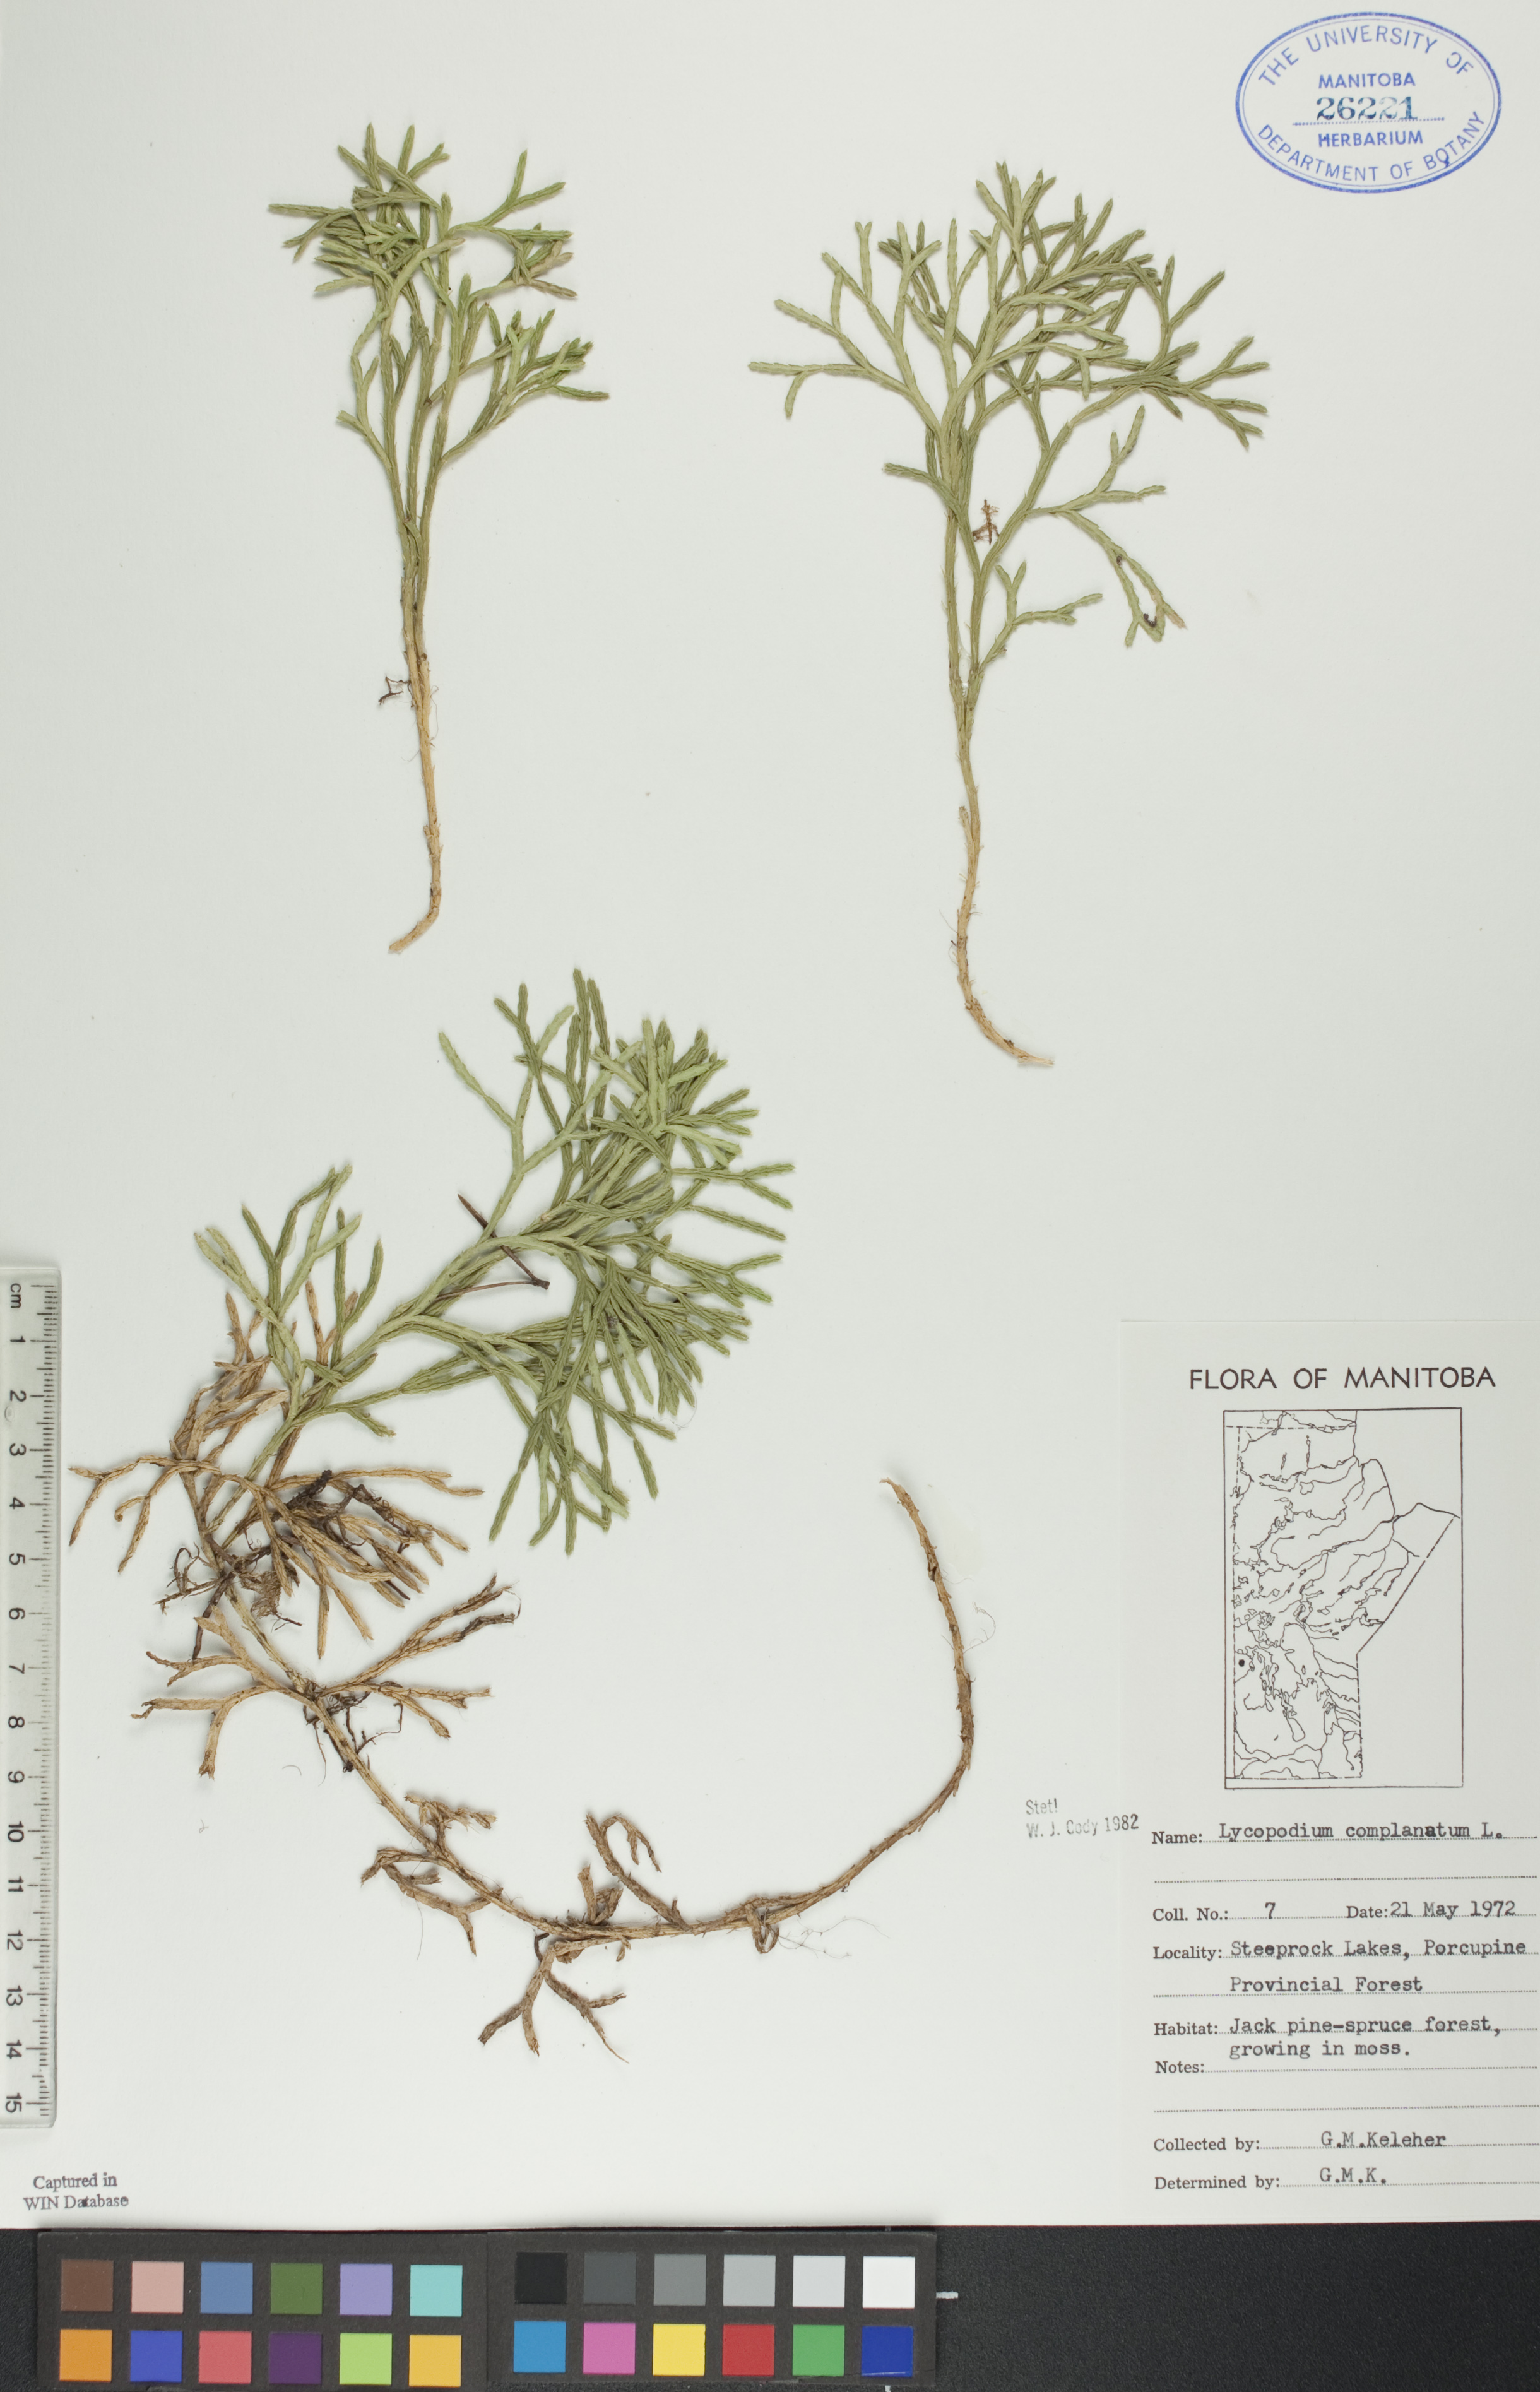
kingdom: Plantae
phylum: Tracheophyta
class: Lycopodiopsida
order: Lycopodiales
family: Lycopodiaceae
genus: Diphasiastrum
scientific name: Diphasiastrum
